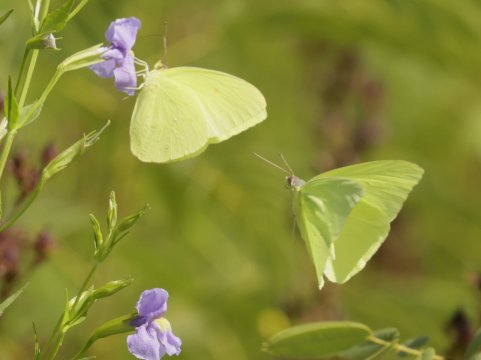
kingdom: Animalia
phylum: Arthropoda
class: Insecta
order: Lepidoptera
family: Pieridae
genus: Phoebis
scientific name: Phoebis sennae
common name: Cloudless Sulphur
